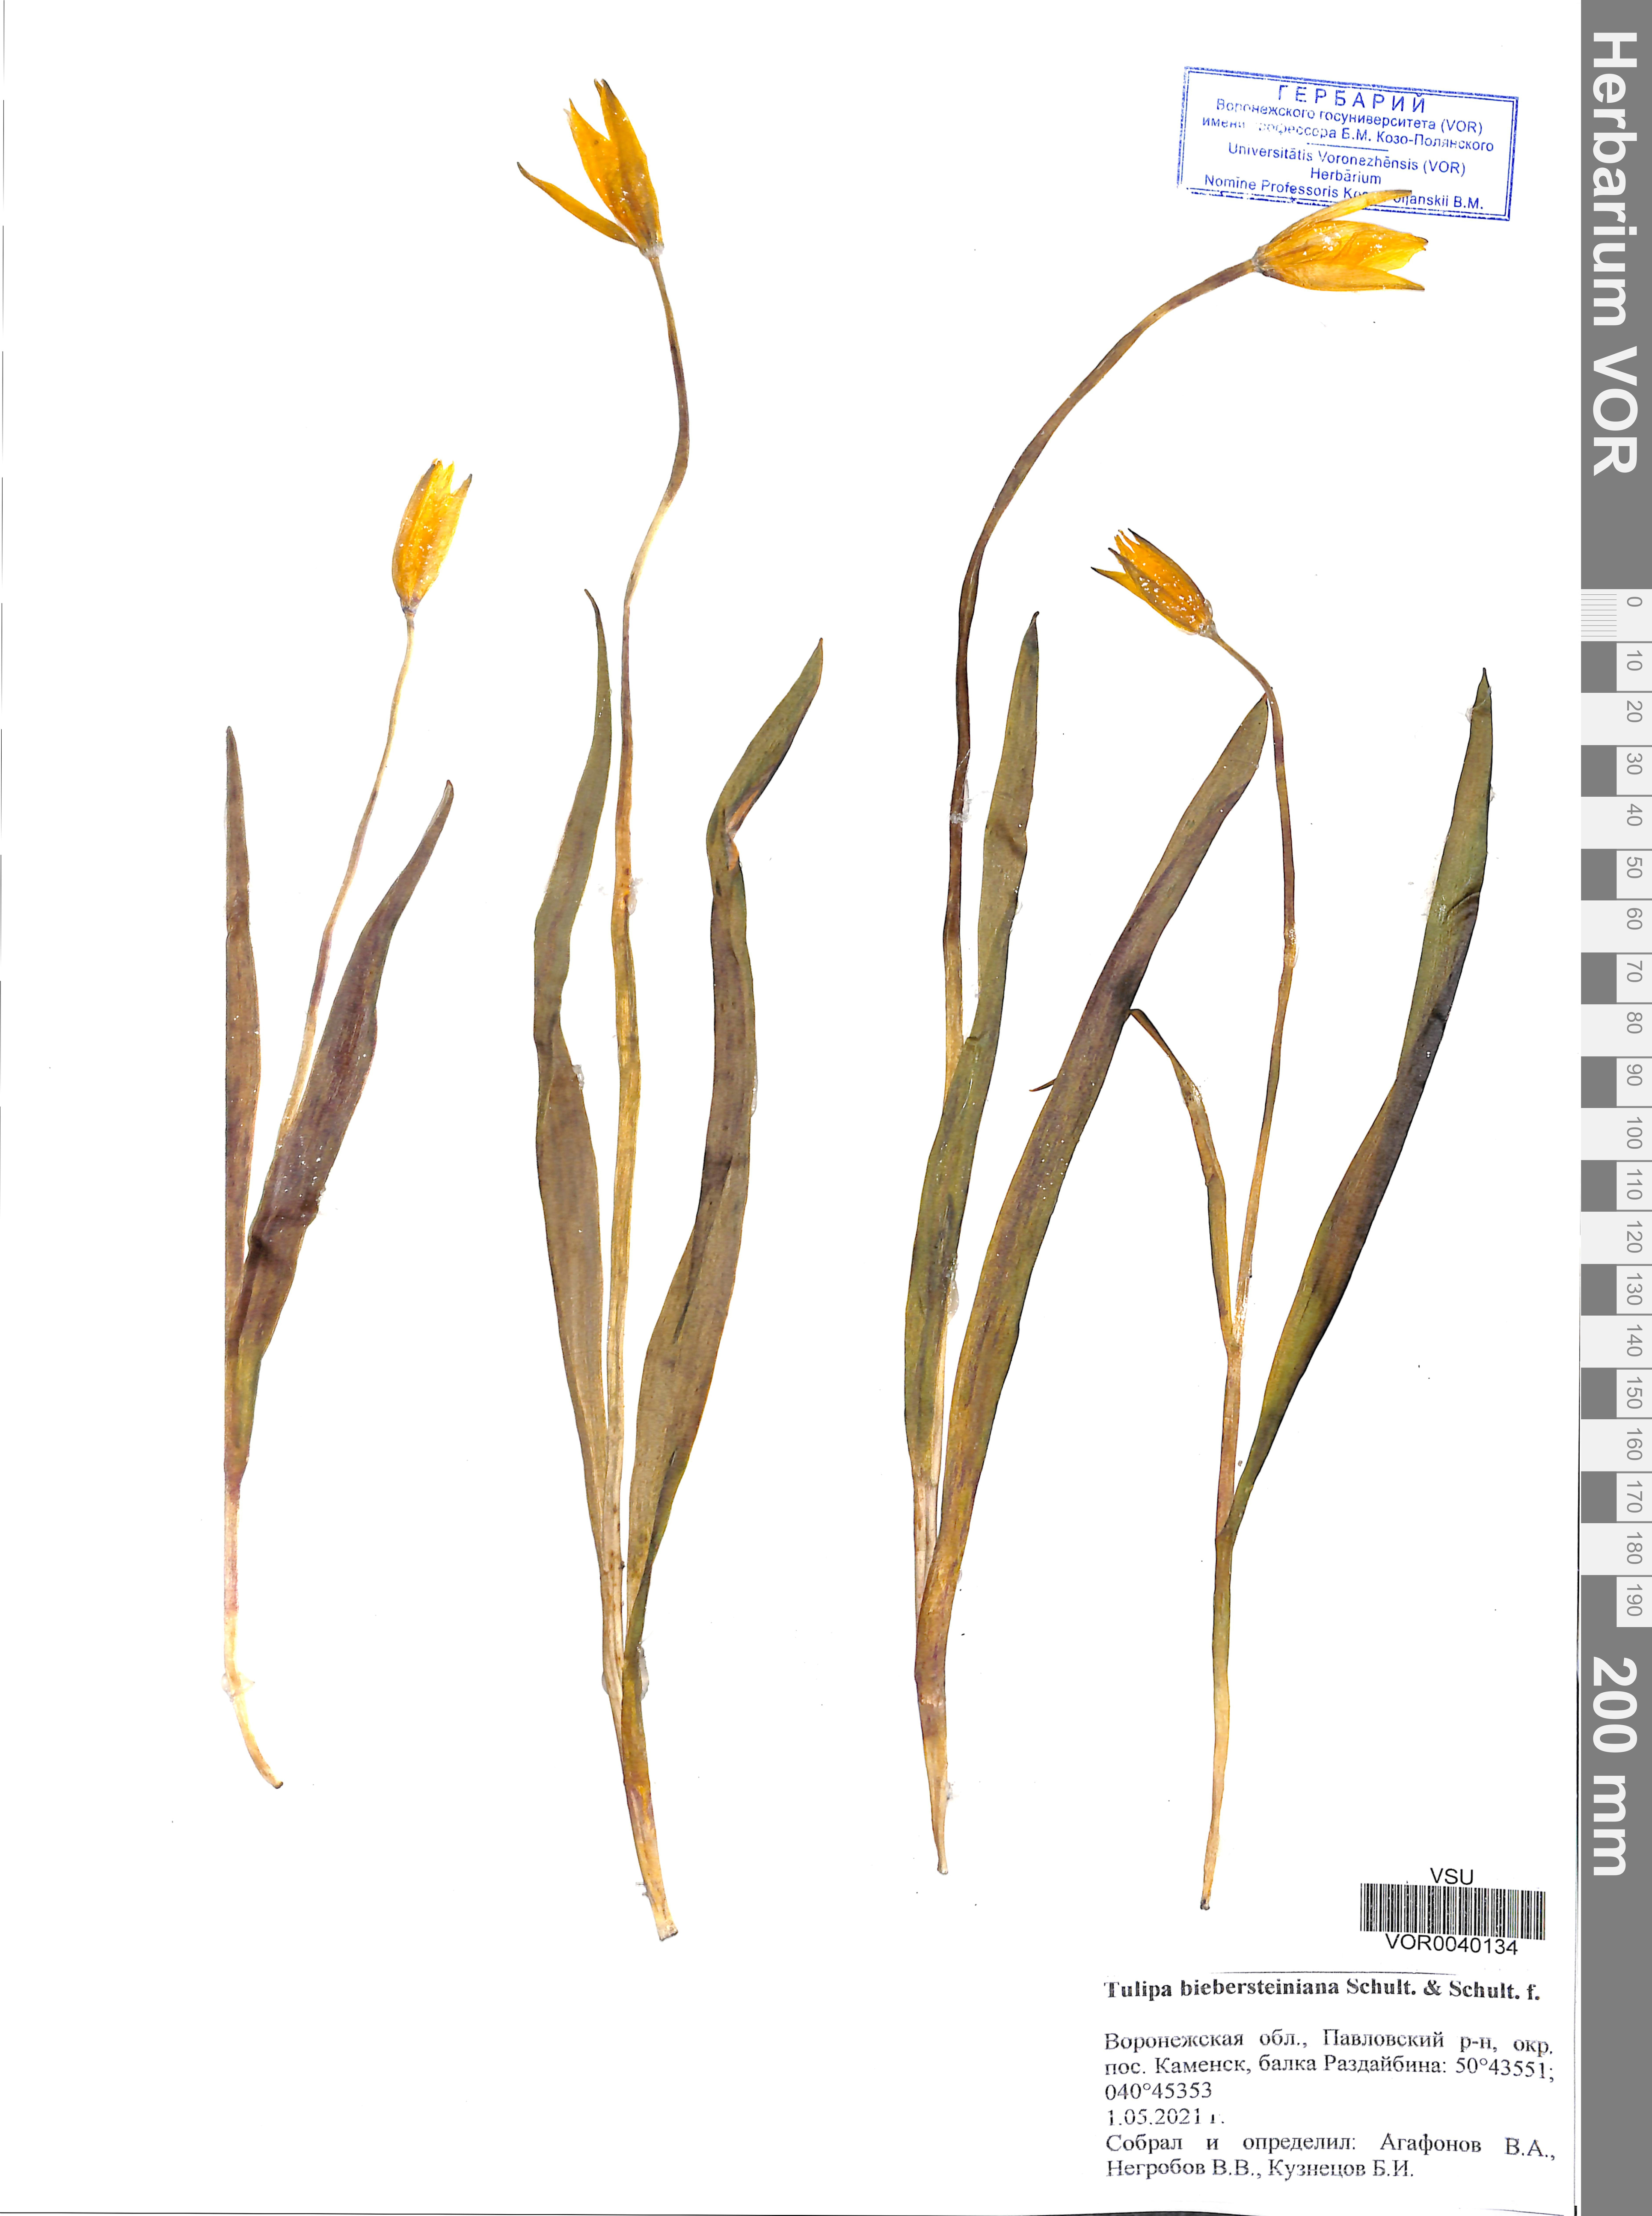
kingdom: Plantae
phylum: Tracheophyta
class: Liliopsida
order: Liliales
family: Liliaceae
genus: Tulipa
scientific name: Tulipa sylvestris
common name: Wild tulip
